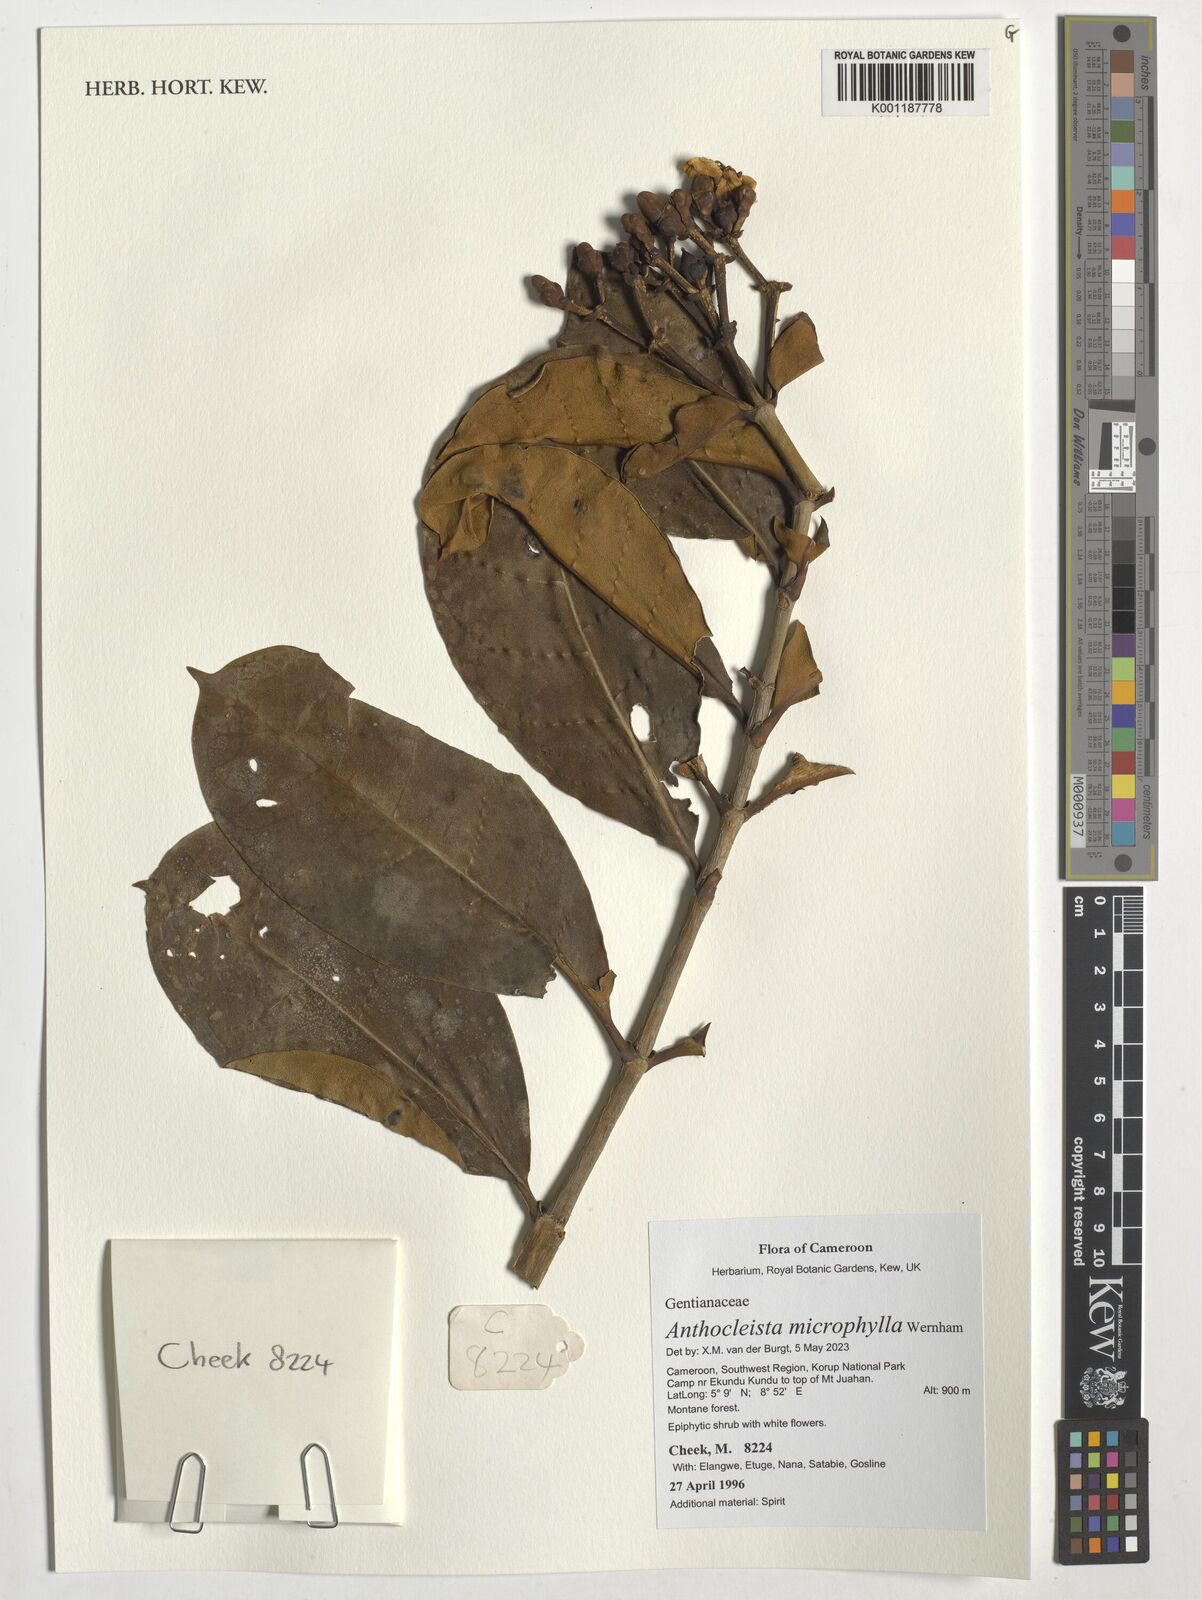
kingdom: Plantae
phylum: Tracheophyta
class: Magnoliopsida
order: Gentianales
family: Gentianaceae
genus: Anthocleista
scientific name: Anthocleista microphylla
